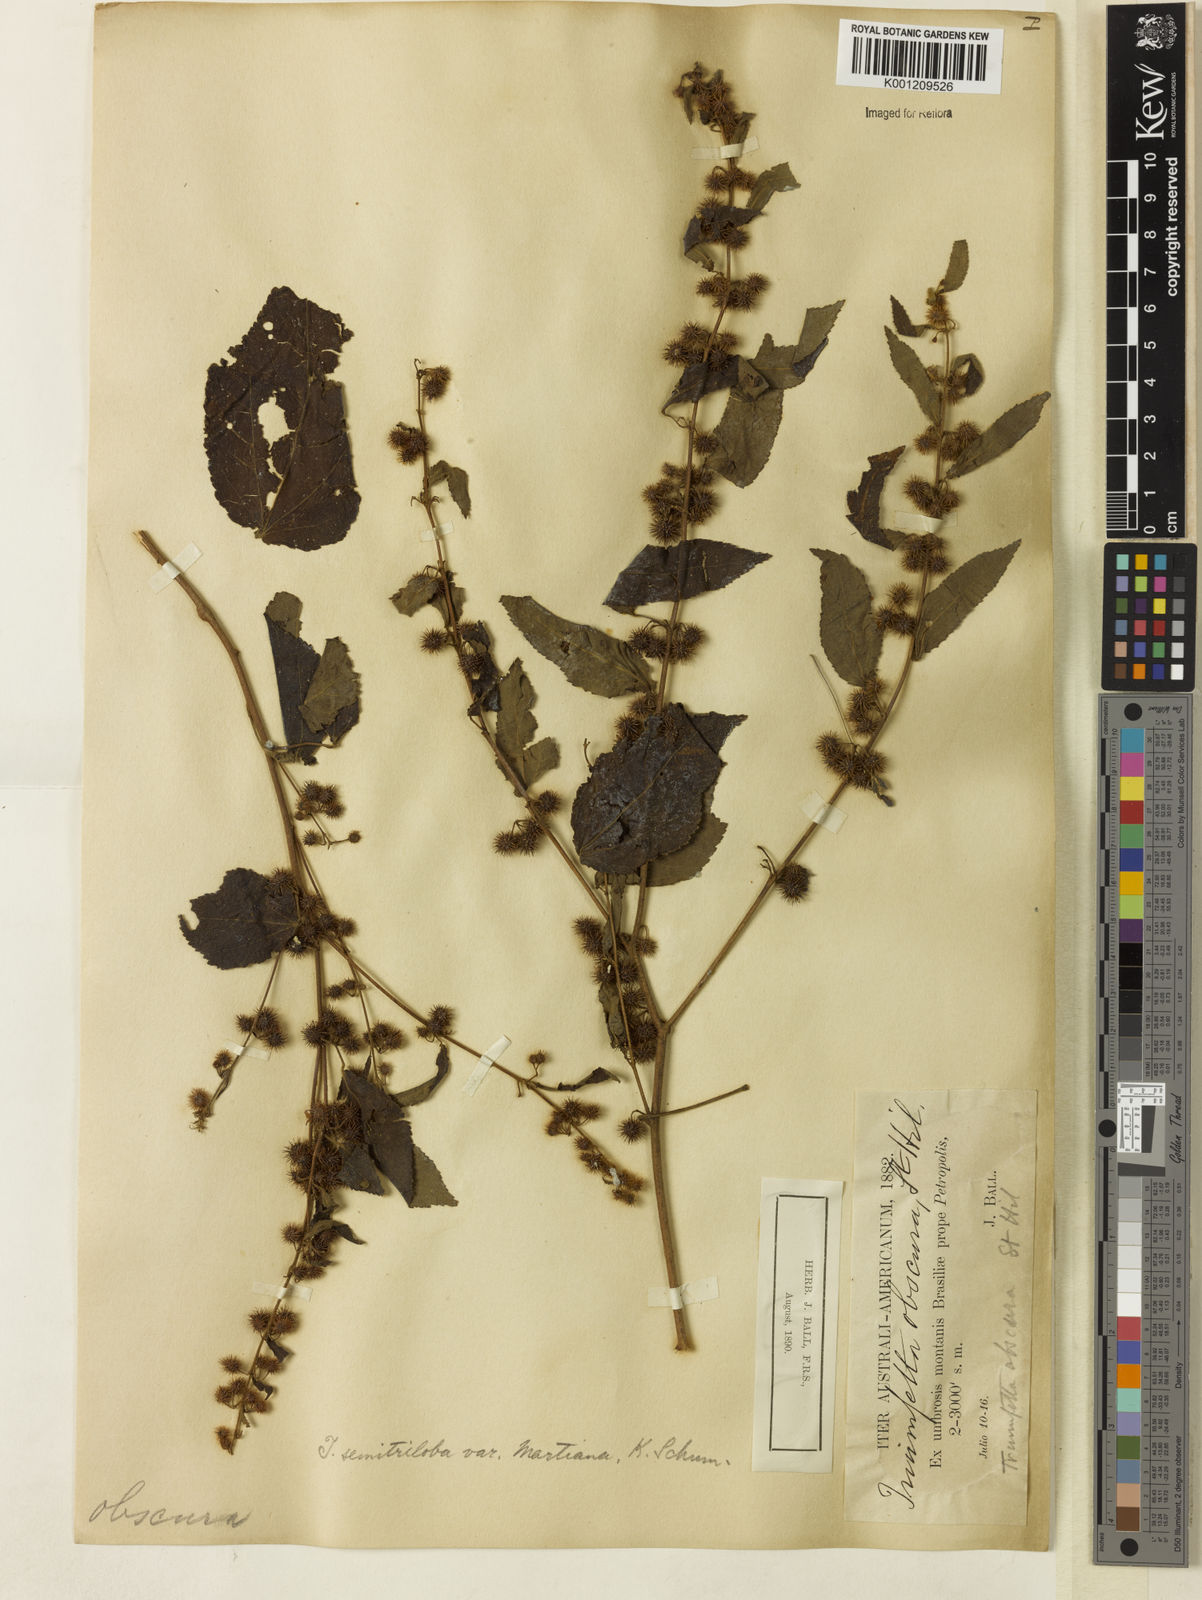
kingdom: Plantae
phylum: Tracheophyta
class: Magnoliopsida
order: Malvales
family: Malvaceae
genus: Triumfetta
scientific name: Triumfetta semitriloba
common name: Sacramento burbark
